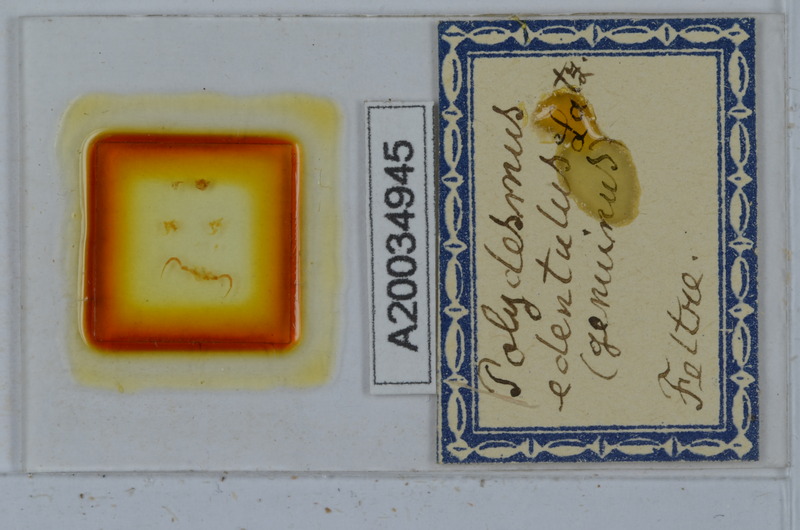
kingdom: Animalia
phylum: Arthropoda
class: Diplopoda
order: Polydesmida
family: Polydesmidae
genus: Polydesmus
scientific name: Polydesmus edentulus
